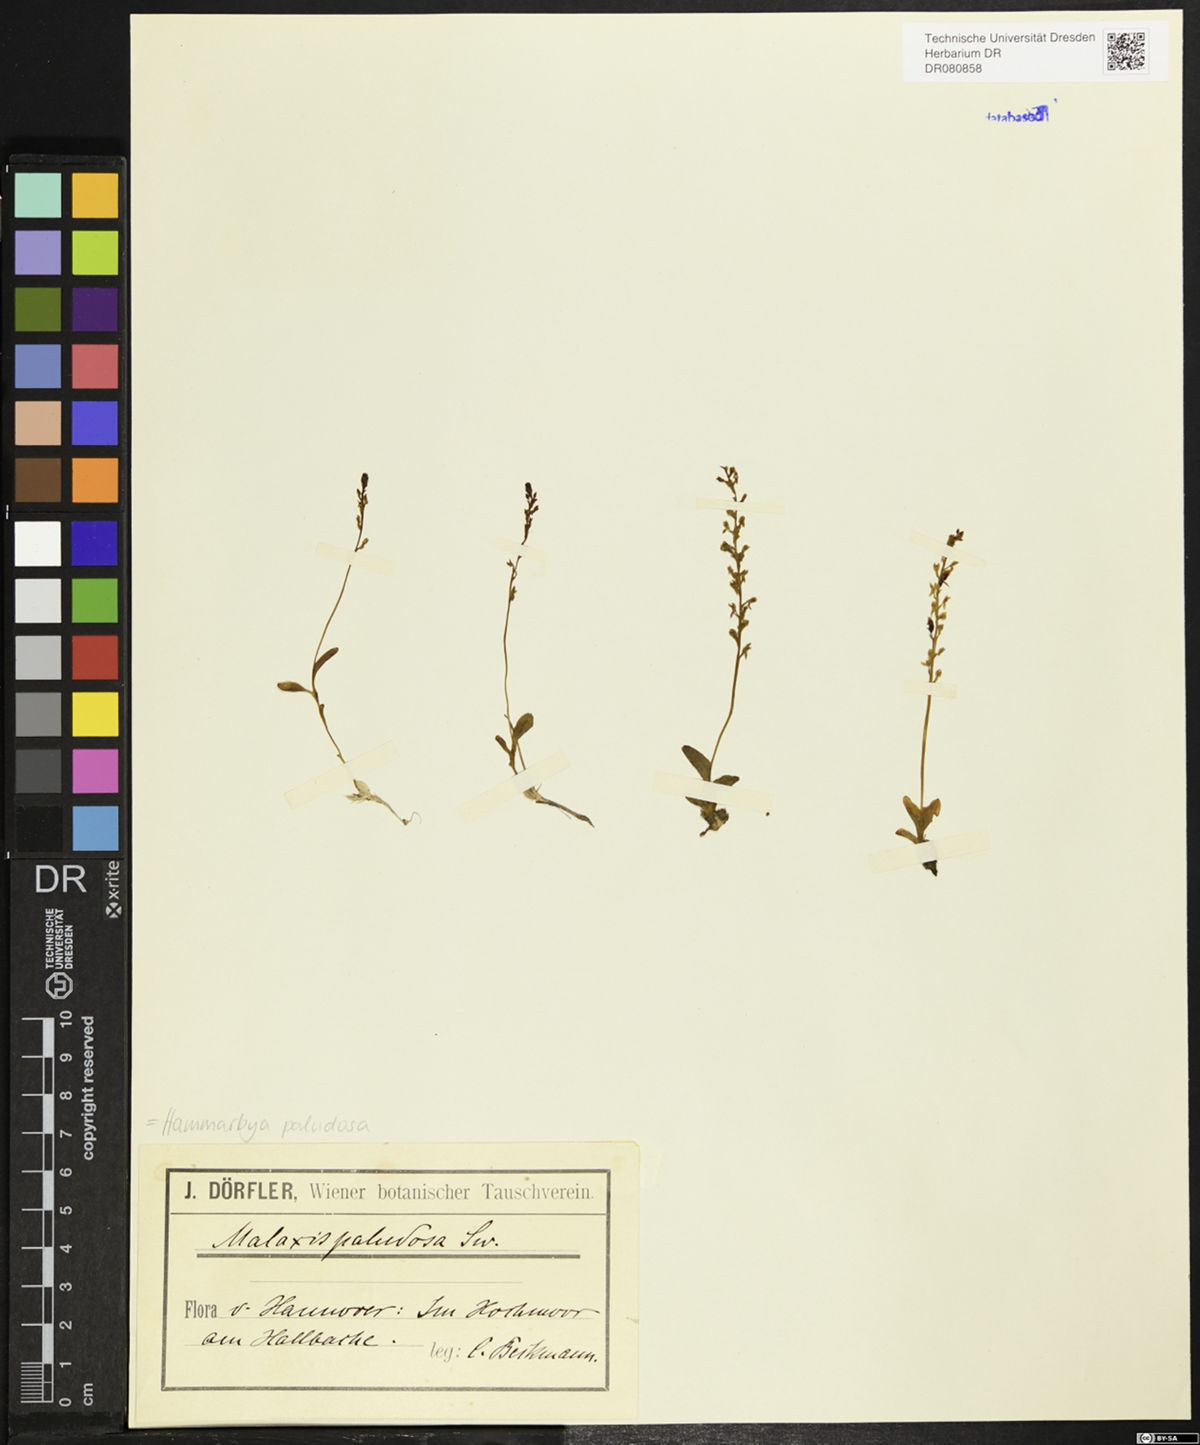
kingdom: Plantae
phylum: Tracheophyta
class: Liliopsida
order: Asparagales
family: Orchidaceae
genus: Hammarbya
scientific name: Hammarbya paludosa
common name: Bog orchid
